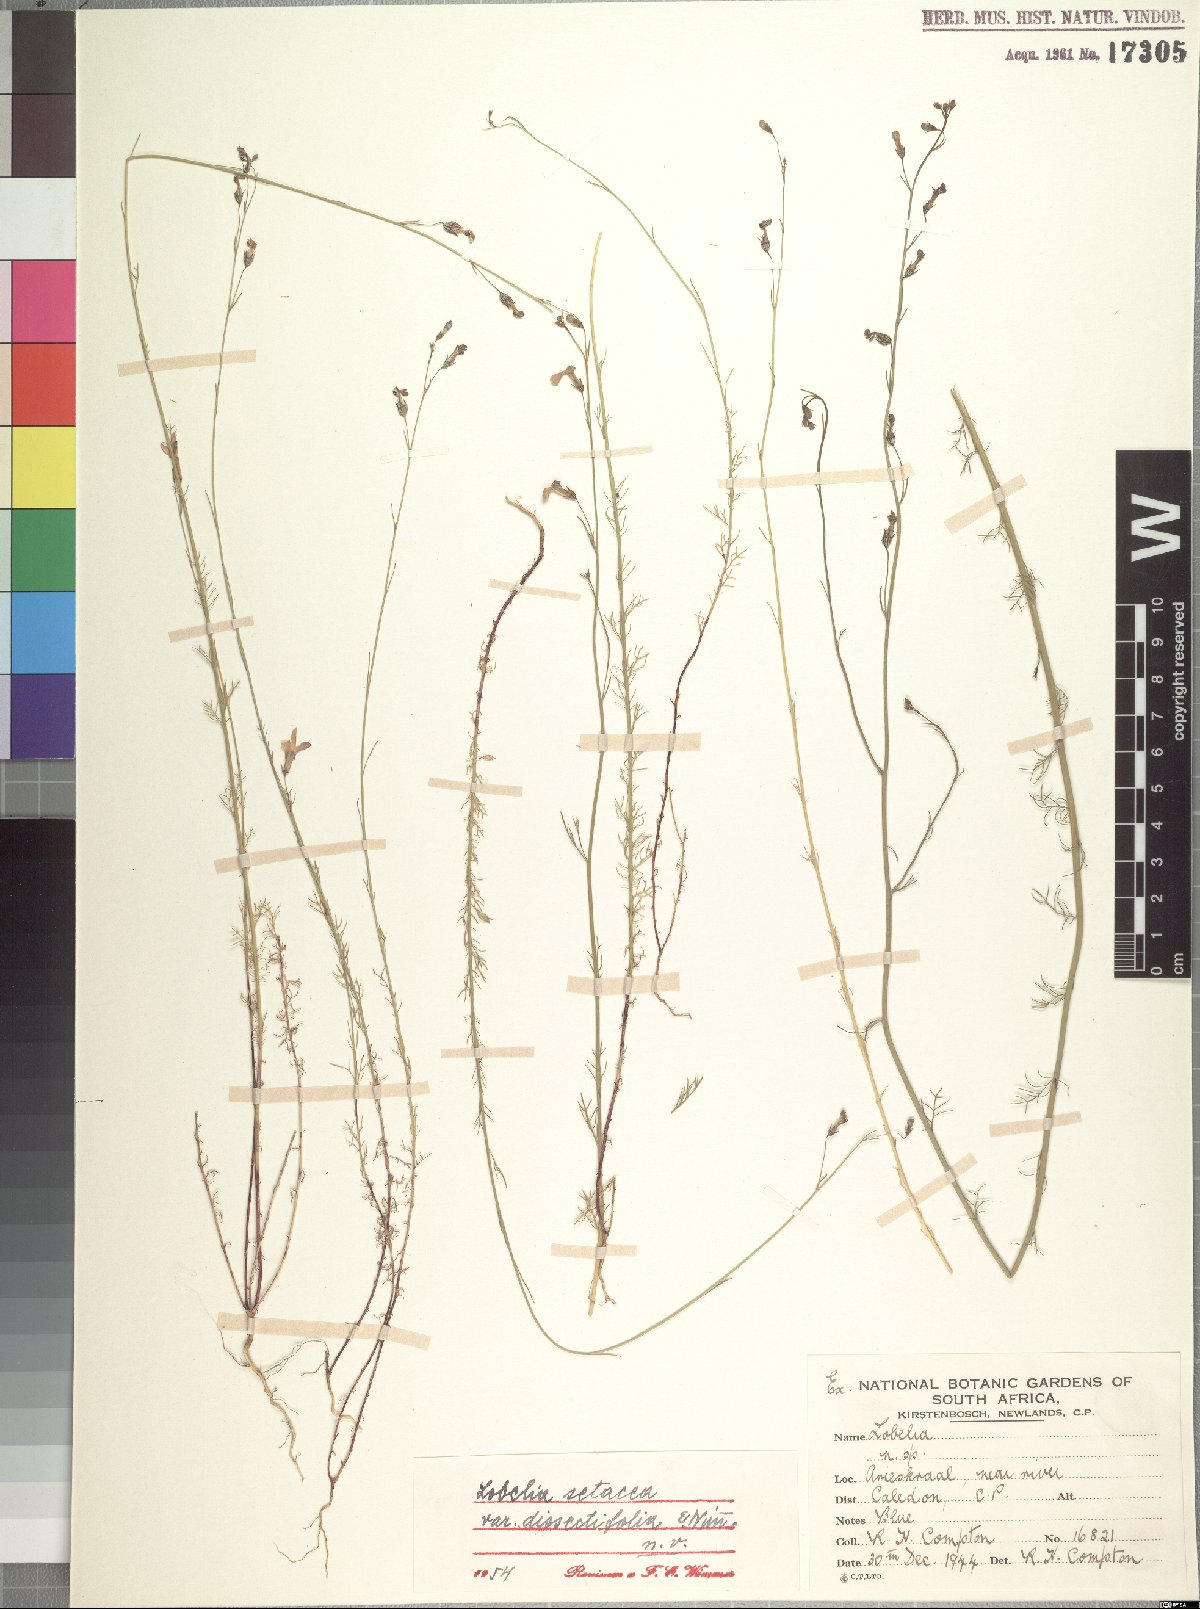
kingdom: Plantae
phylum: Tracheophyta
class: Magnoliopsida
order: Asterales
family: Campanulaceae
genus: Lobelia
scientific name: Lobelia setacea
